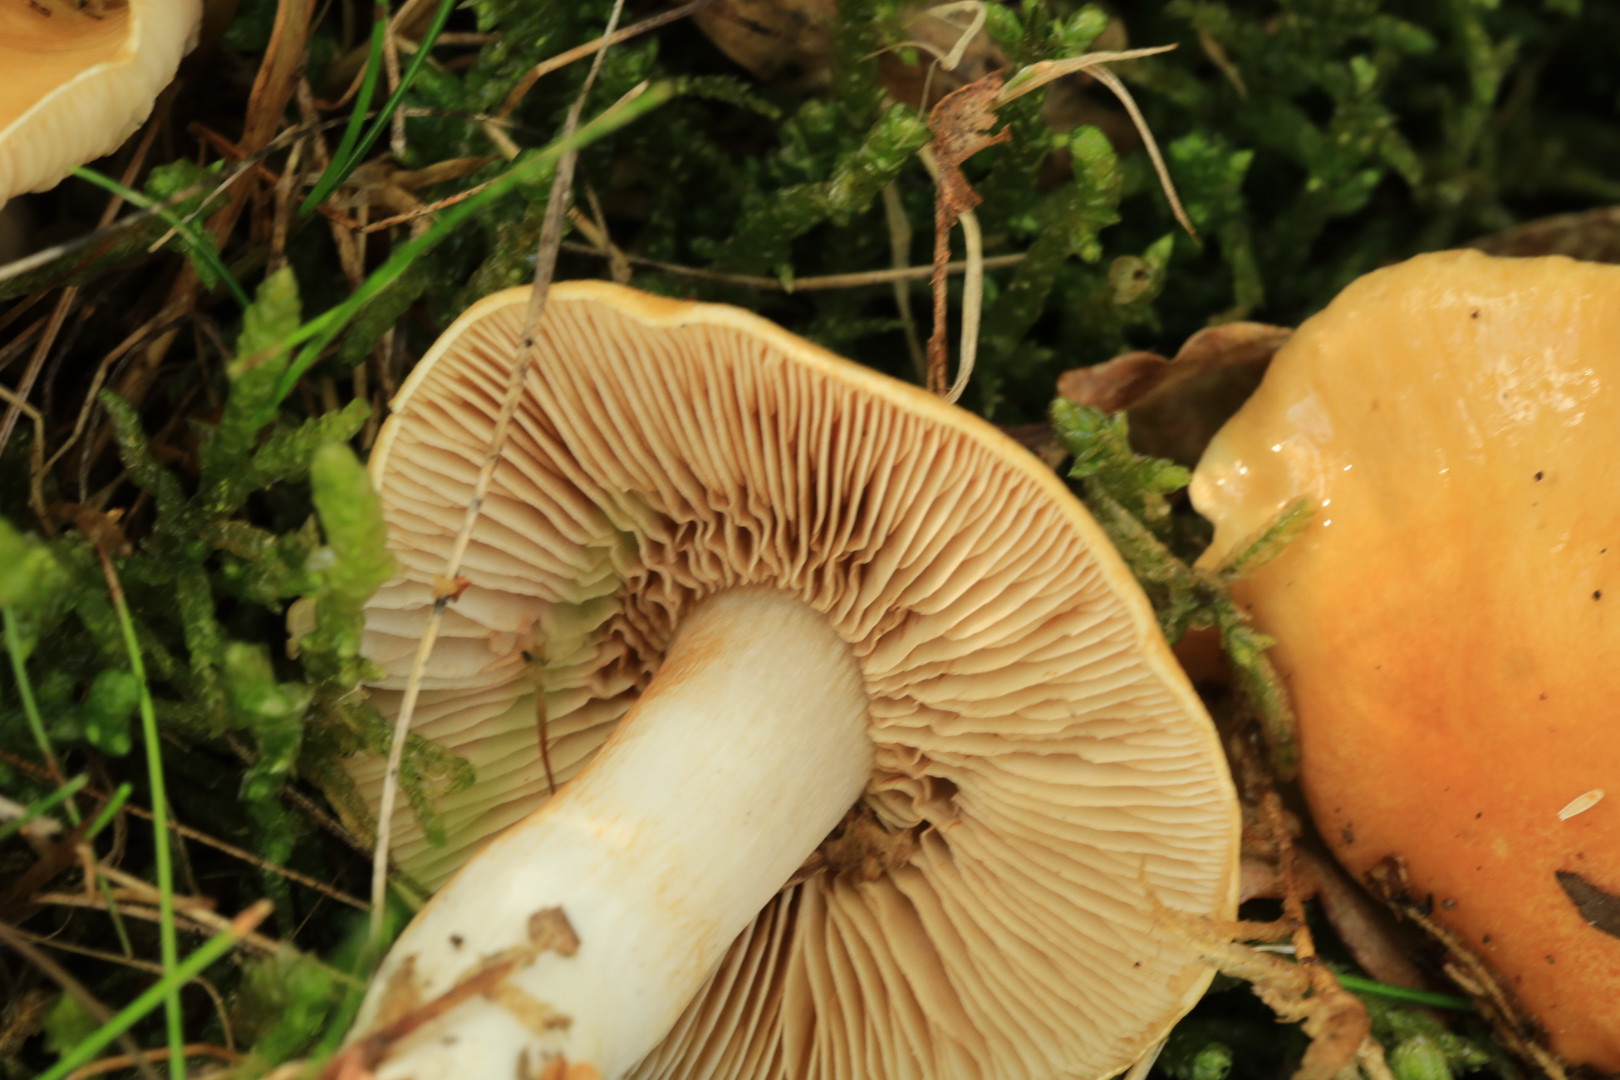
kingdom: Fungi
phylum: Basidiomycota
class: Agaricomycetes
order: Agaricales
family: Cortinariaceae
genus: Cortinarius
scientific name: Cortinarius
